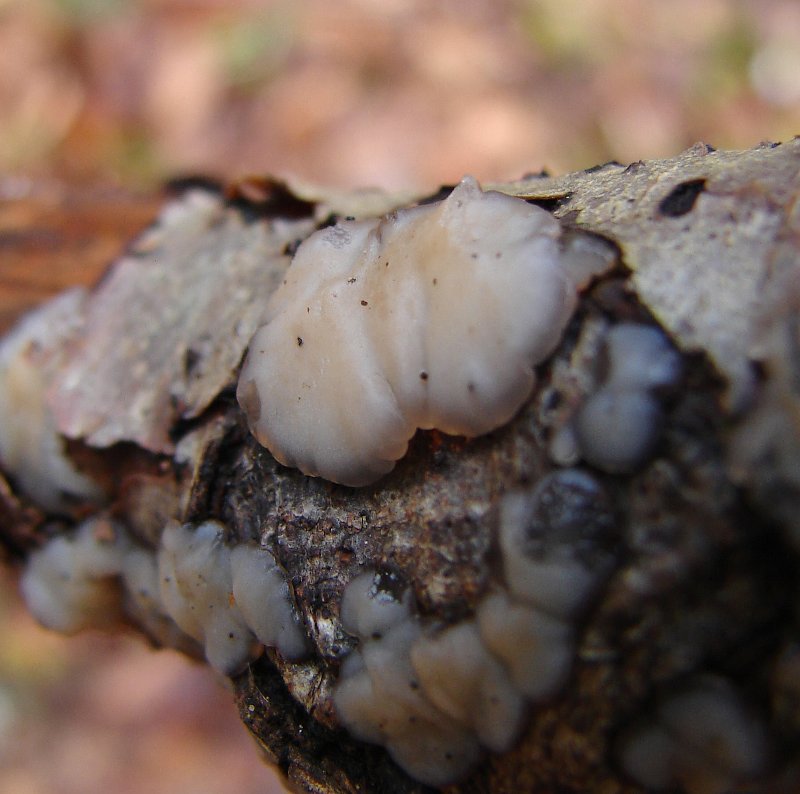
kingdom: Fungi
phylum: Basidiomycota
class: Agaricomycetes
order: Auriculariales
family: Auriculariaceae
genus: Exidia
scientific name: Exidia thuretiana
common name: hvidlig bævretop
